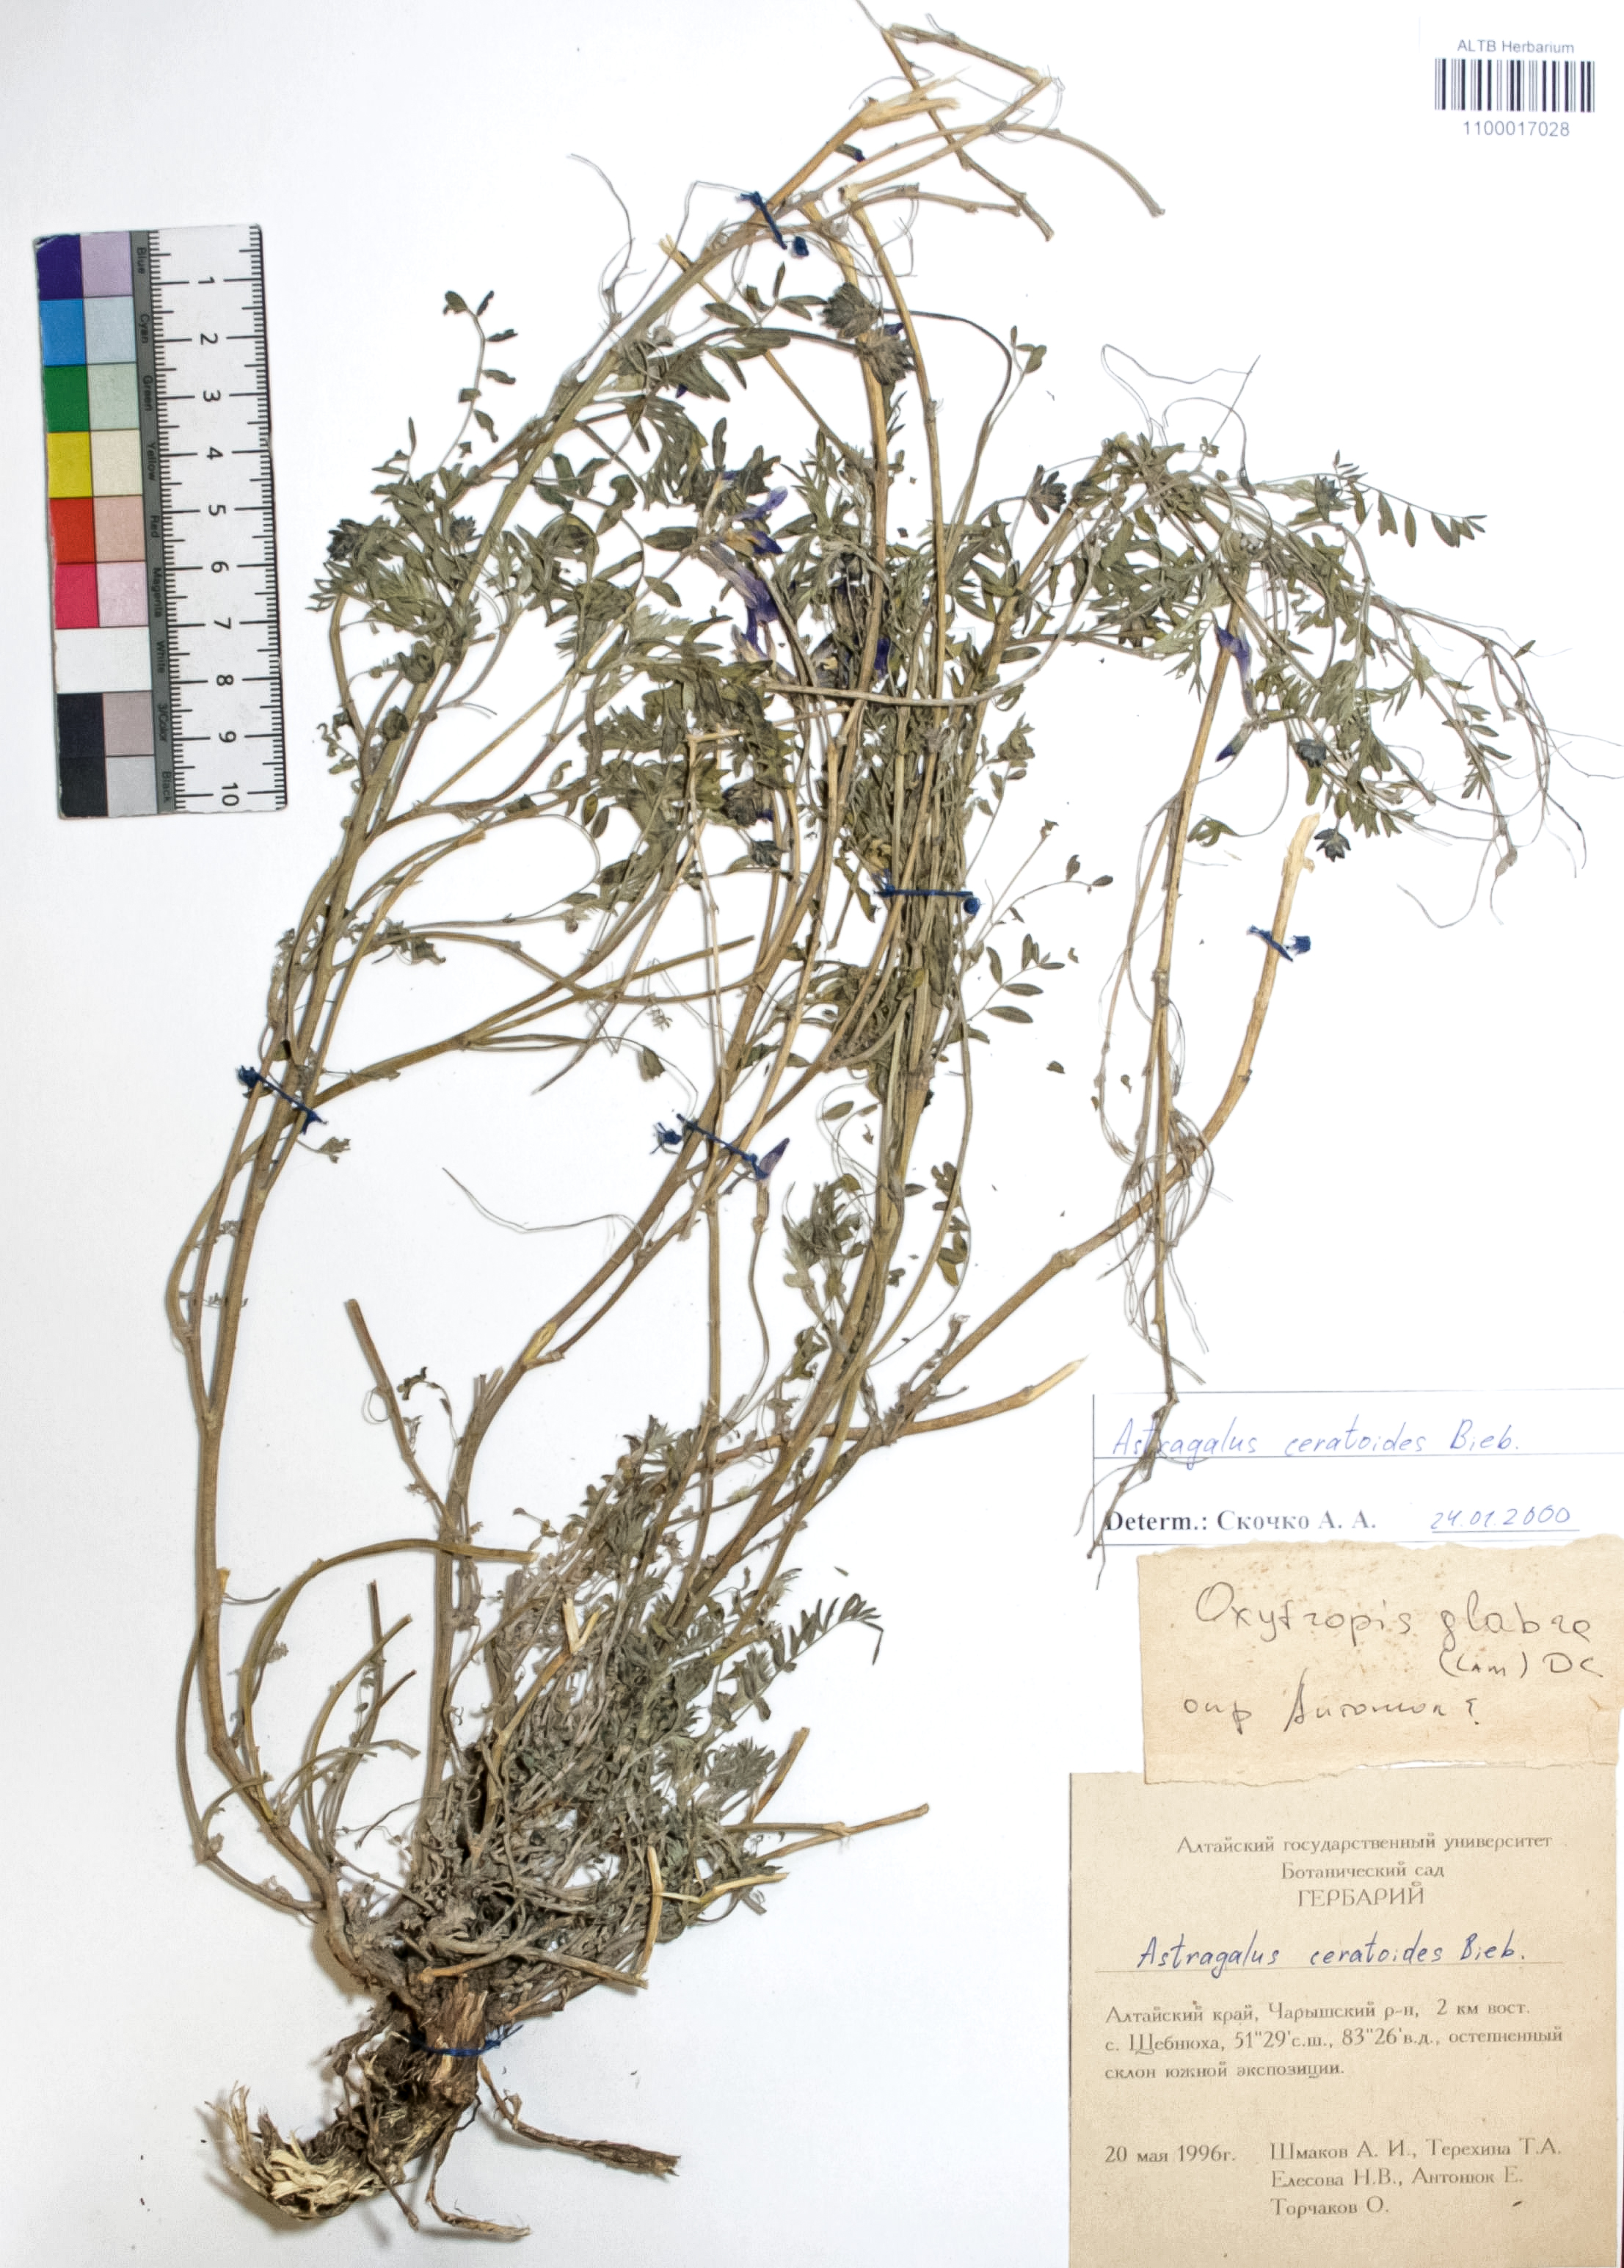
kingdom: Plantae
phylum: Tracheophyta
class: Magnoliopsida
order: Fabales
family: Fabaceae
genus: Astragalus
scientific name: Astragalus ceratoides
